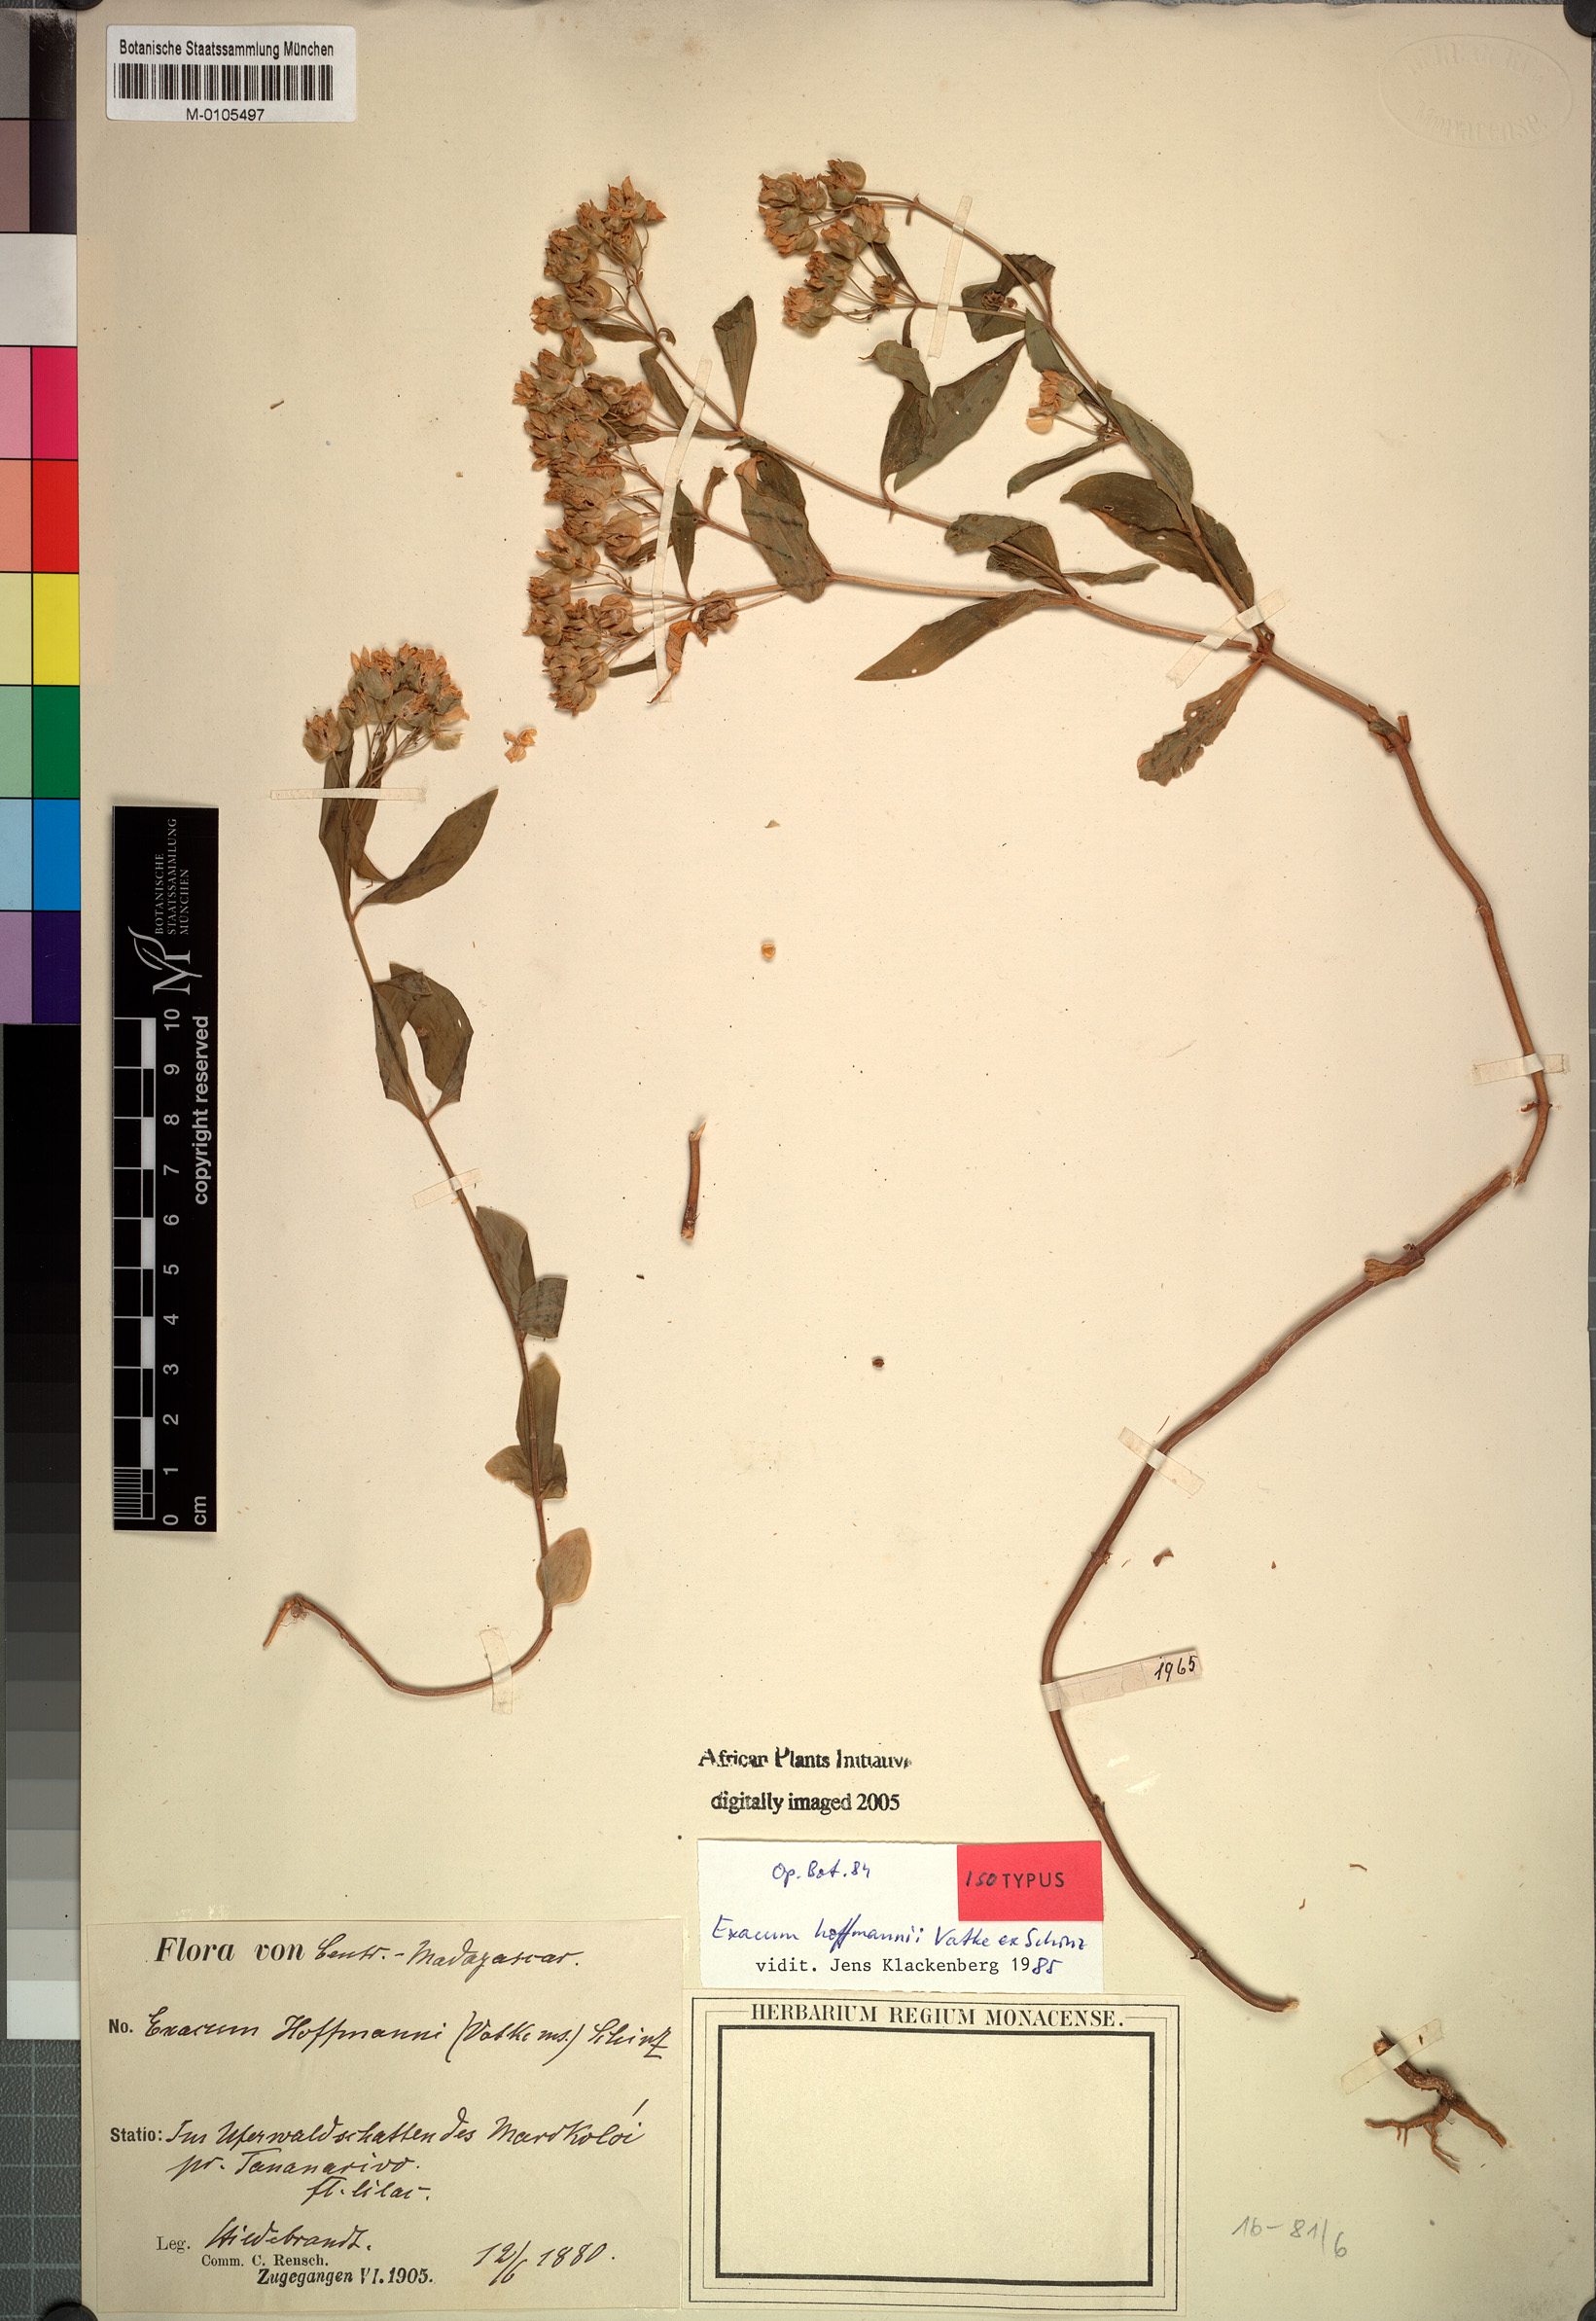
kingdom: Plantae
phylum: Tracheophyta
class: Magnoliopsida
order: Gentianales
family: Gentianaceae
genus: Exacum
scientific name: Exacum hoffmannii
